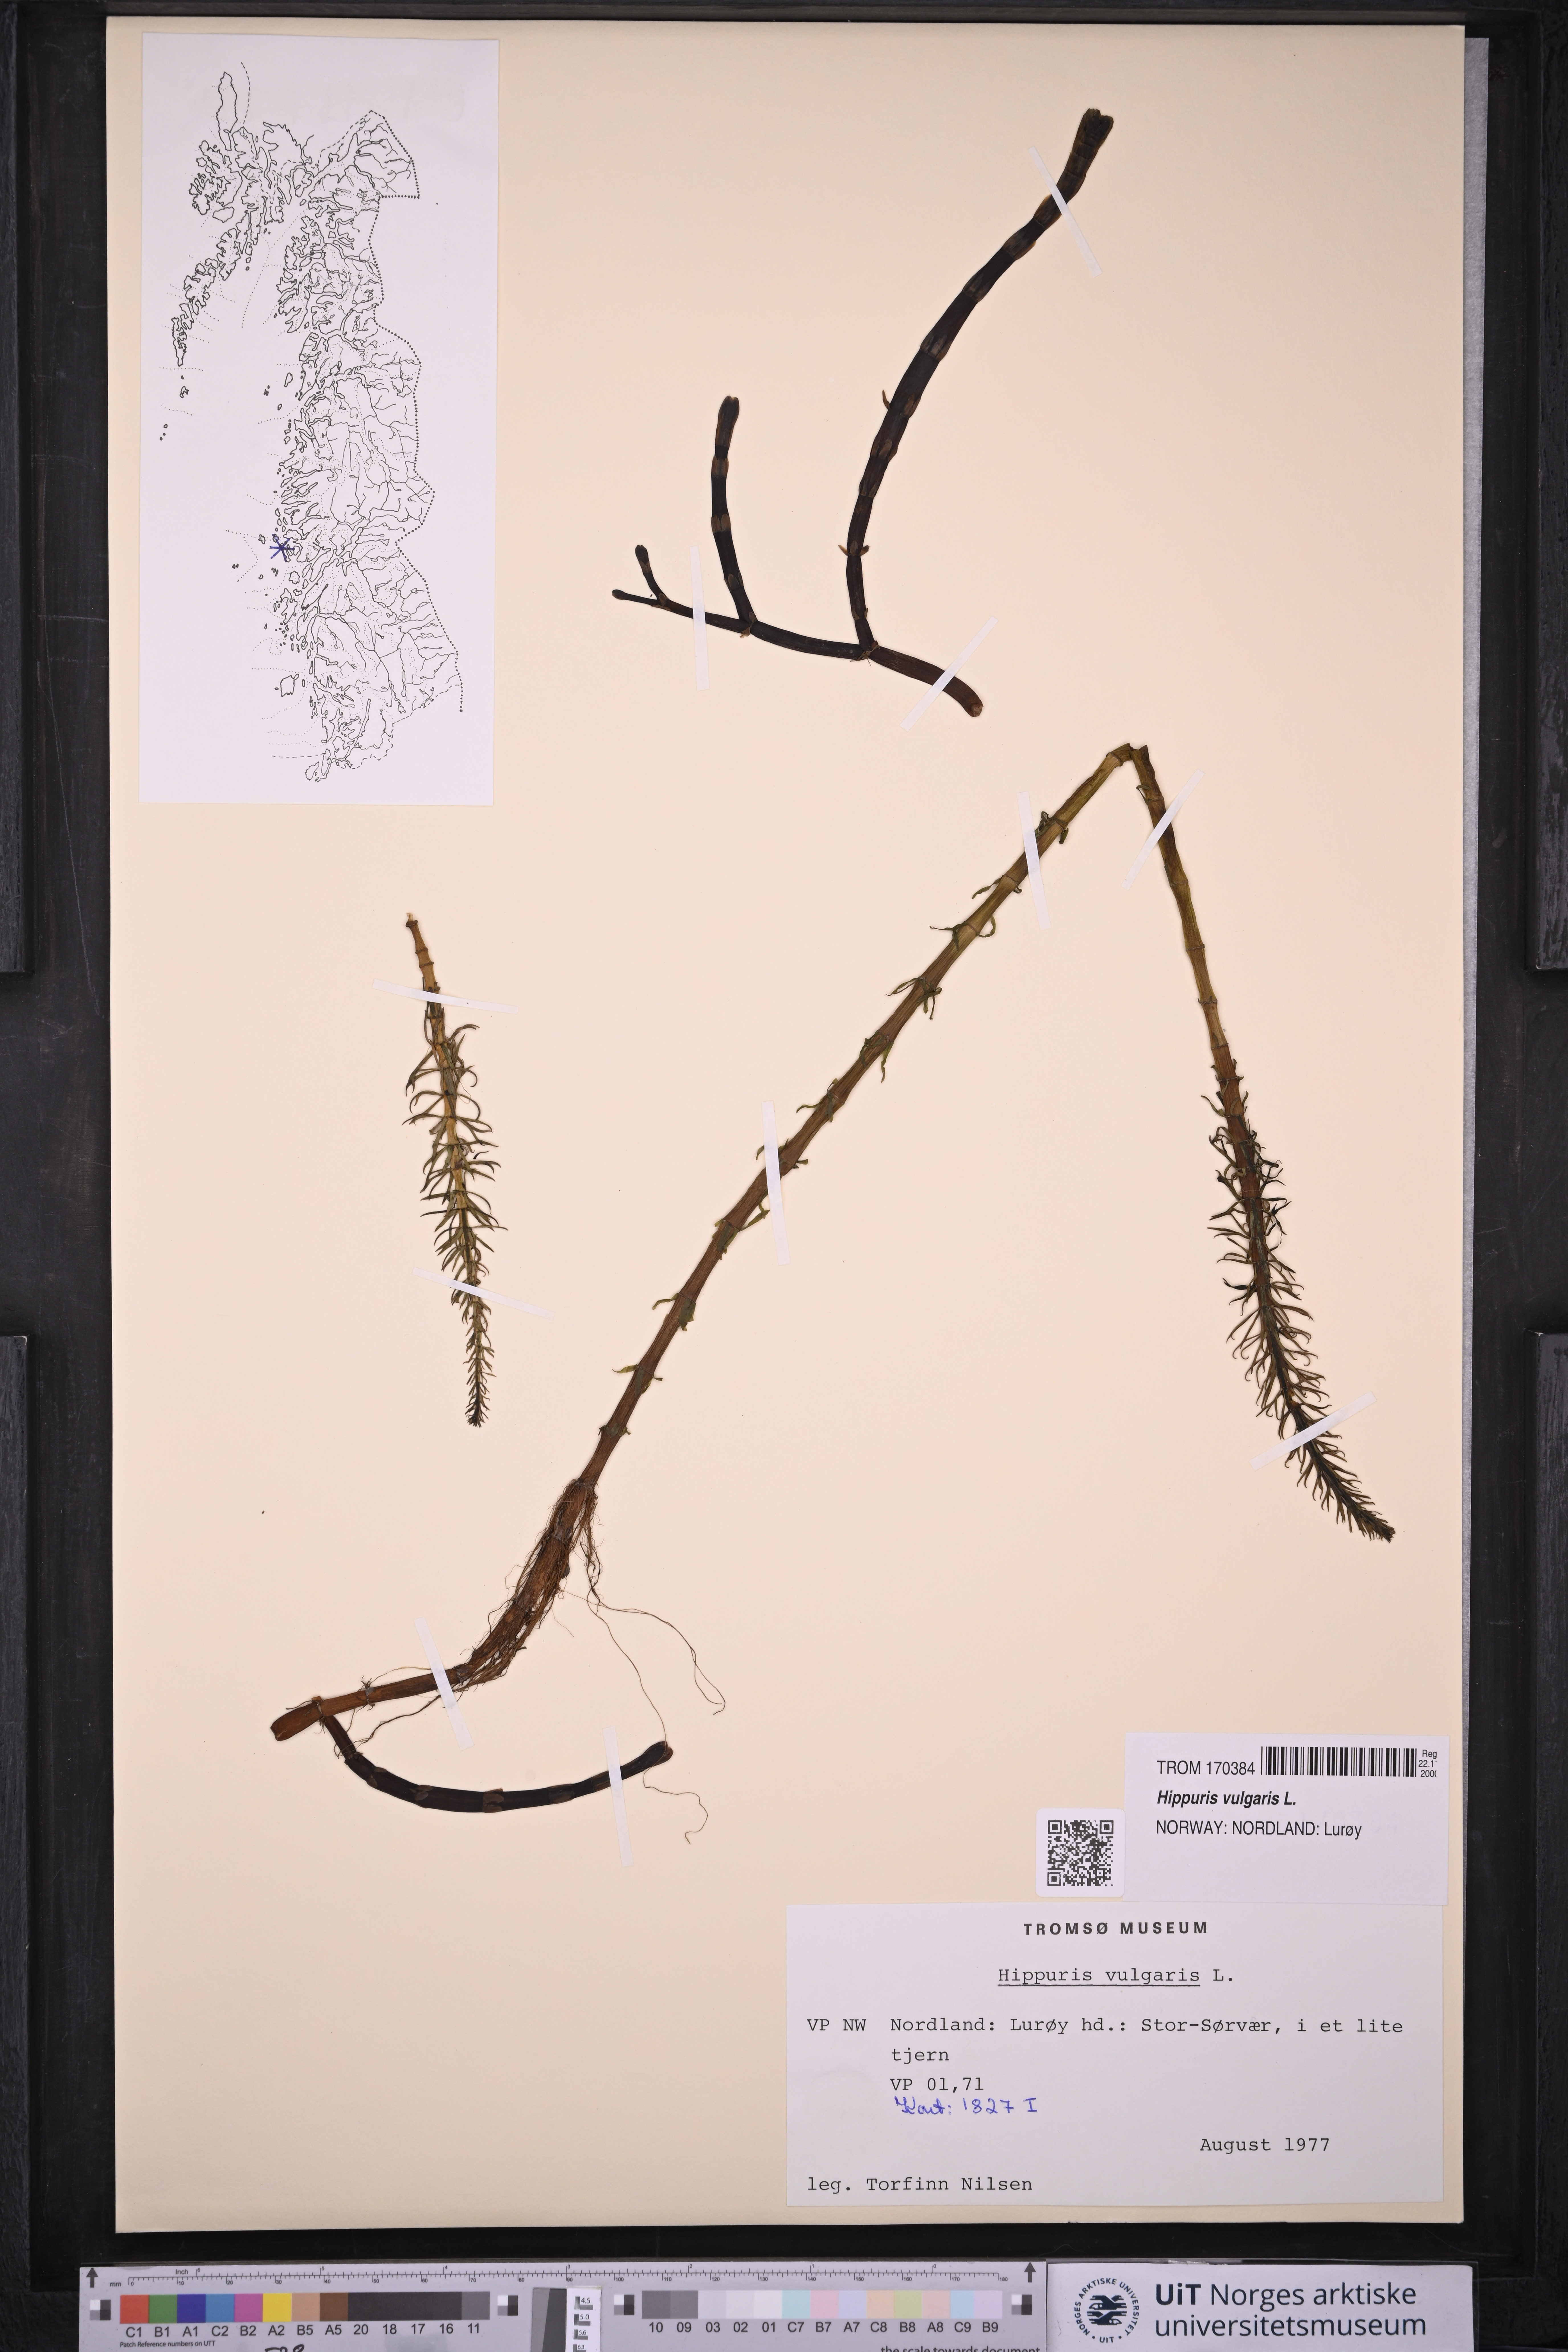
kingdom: Plantae
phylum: Tracheophyta
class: Magnoliopsida
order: Lamiales
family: Plantaginaceae
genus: Hippuris
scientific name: Hippuris vulgaris
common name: Mare's-tail
